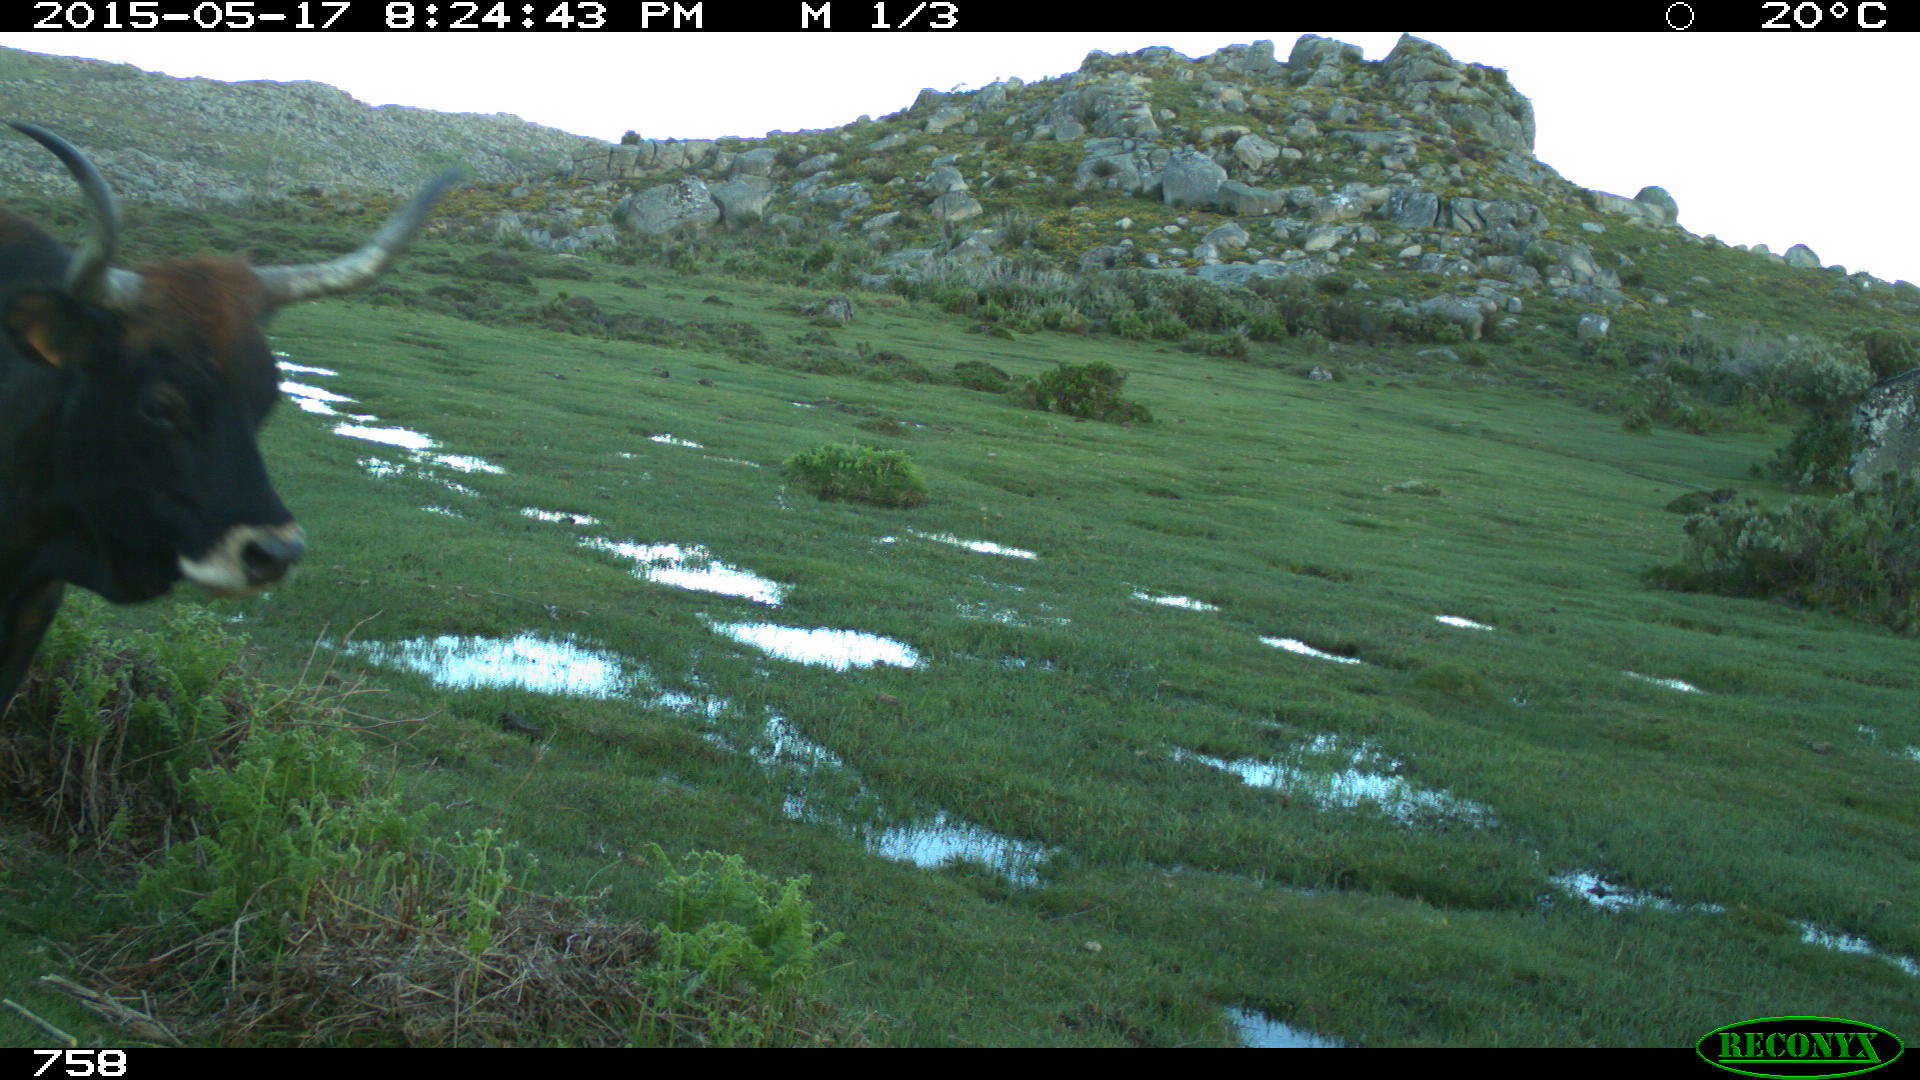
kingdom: Animalia
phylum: Chordata
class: Mammalia
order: Artiodactyla
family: Bovidae
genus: Bos
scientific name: Bos taurus
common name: Domesticated cattle
